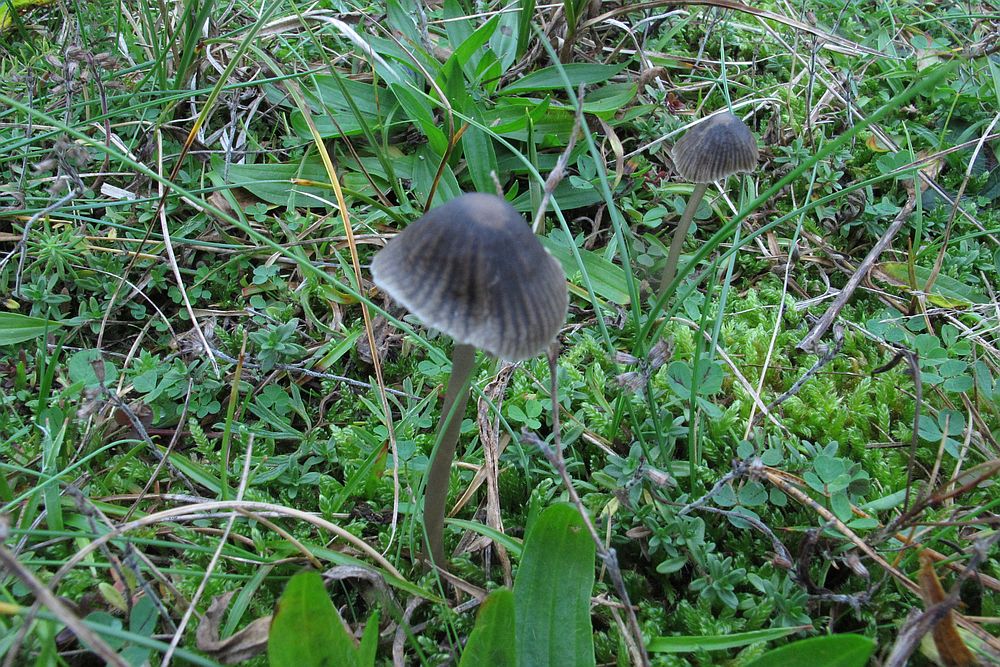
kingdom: Fungi
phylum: Basidiomycota
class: Agaricomycetes
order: Agaricales
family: Mycenaceae
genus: Mycena
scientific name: Mycena aetites
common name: plæne-huesvamp
